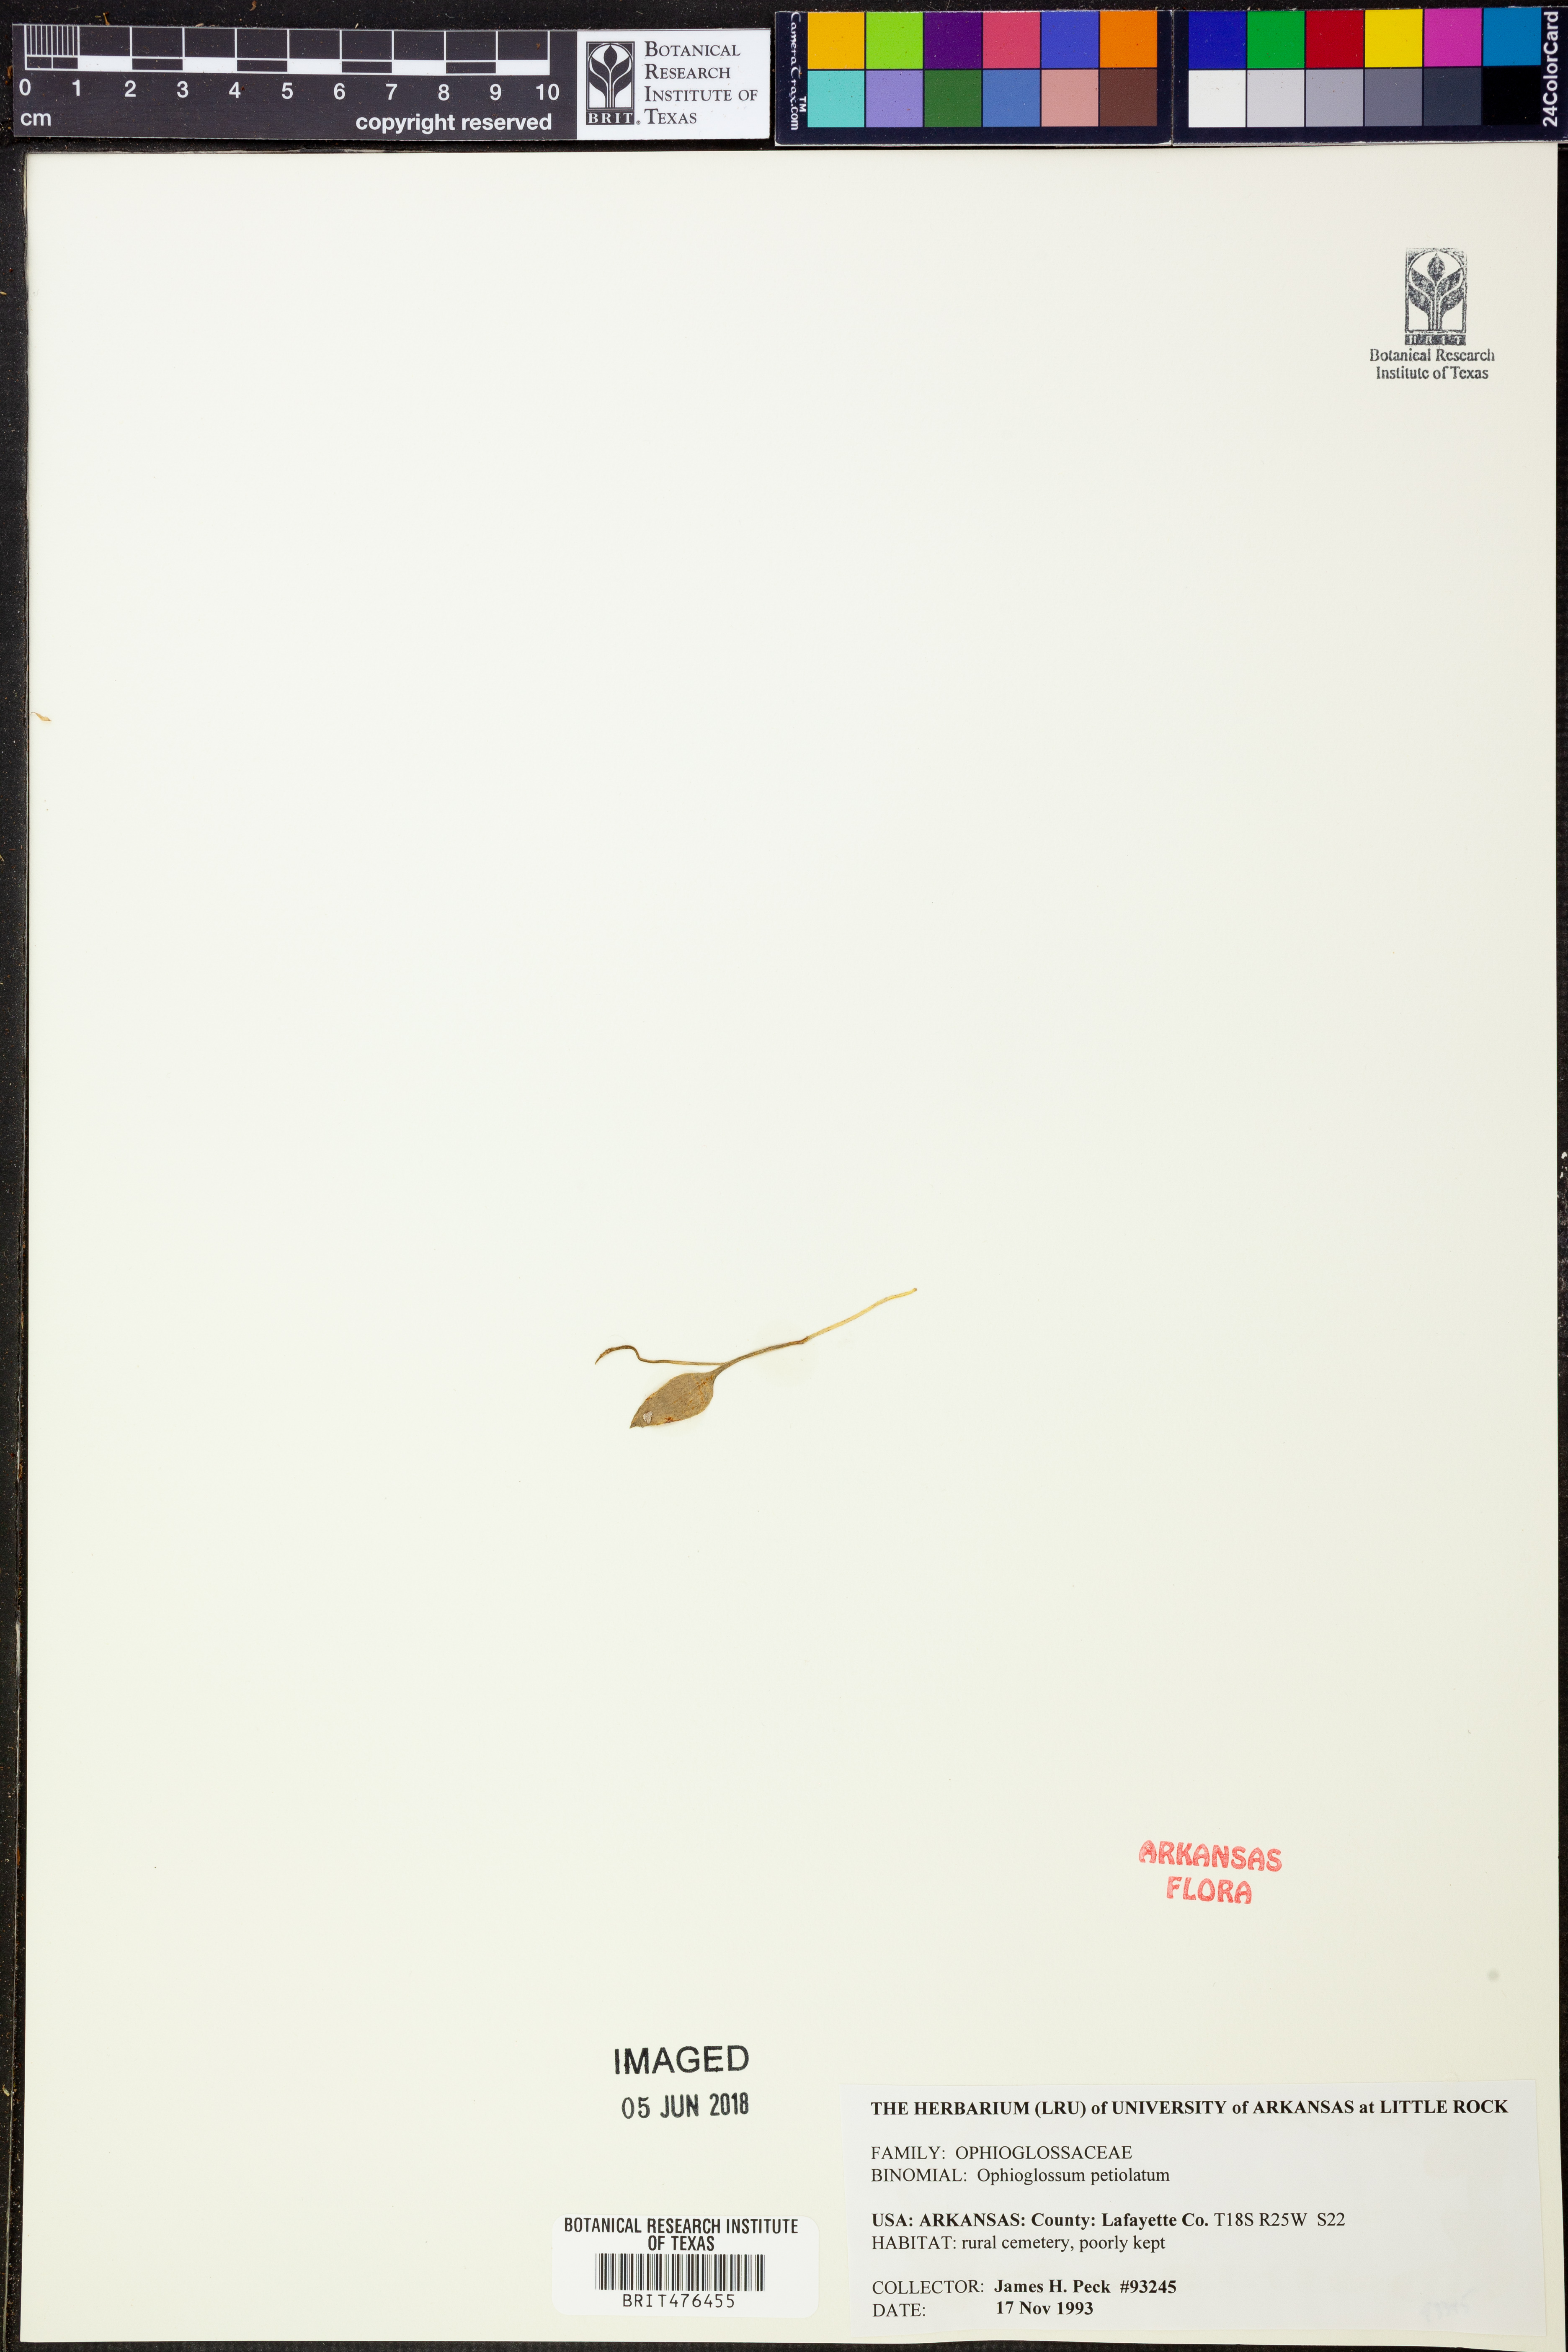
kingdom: Plantae
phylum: Tracheophyta
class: Polypodiopsida
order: Ophioglossales
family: Ophioglossaceae
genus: Ophioglossum
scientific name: Ophioglossum petiolatum
